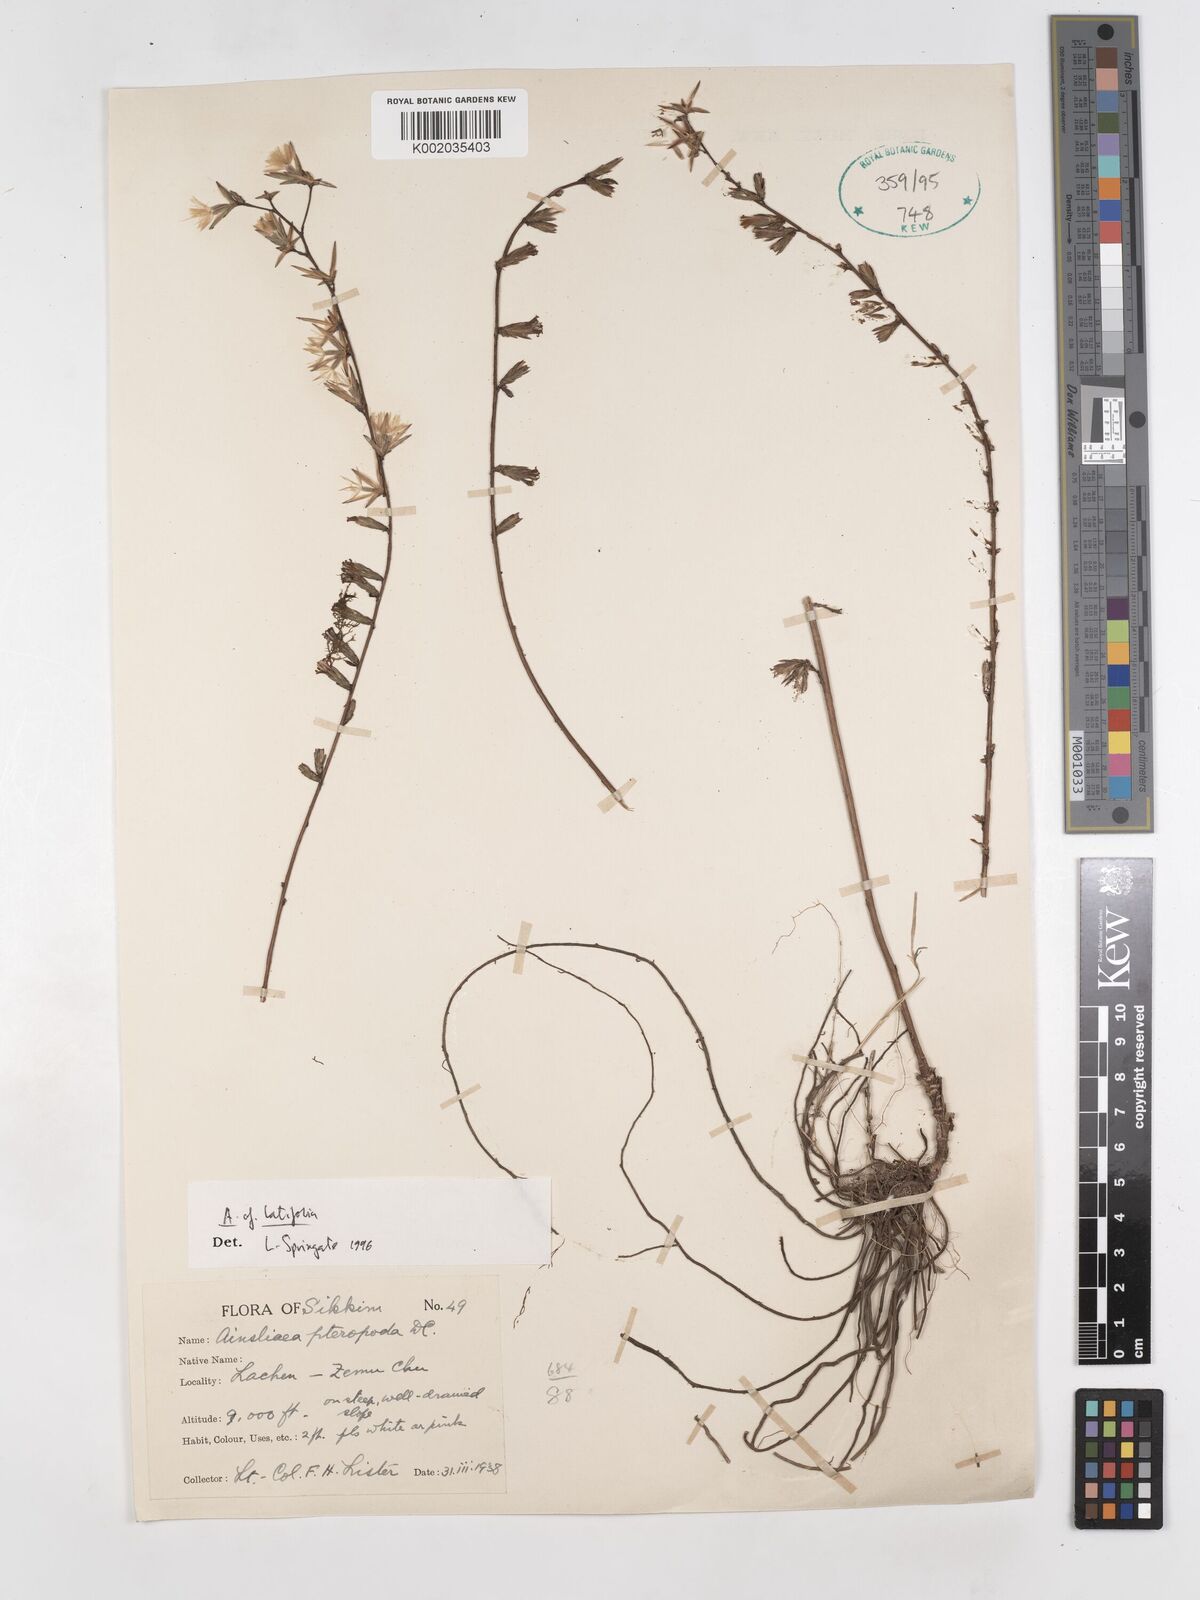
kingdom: Plantae
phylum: Tracheophyta
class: Magnoliopsida
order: Asterales
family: Asteraceae
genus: Ainsliaea
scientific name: Ainsliaea latifolia
